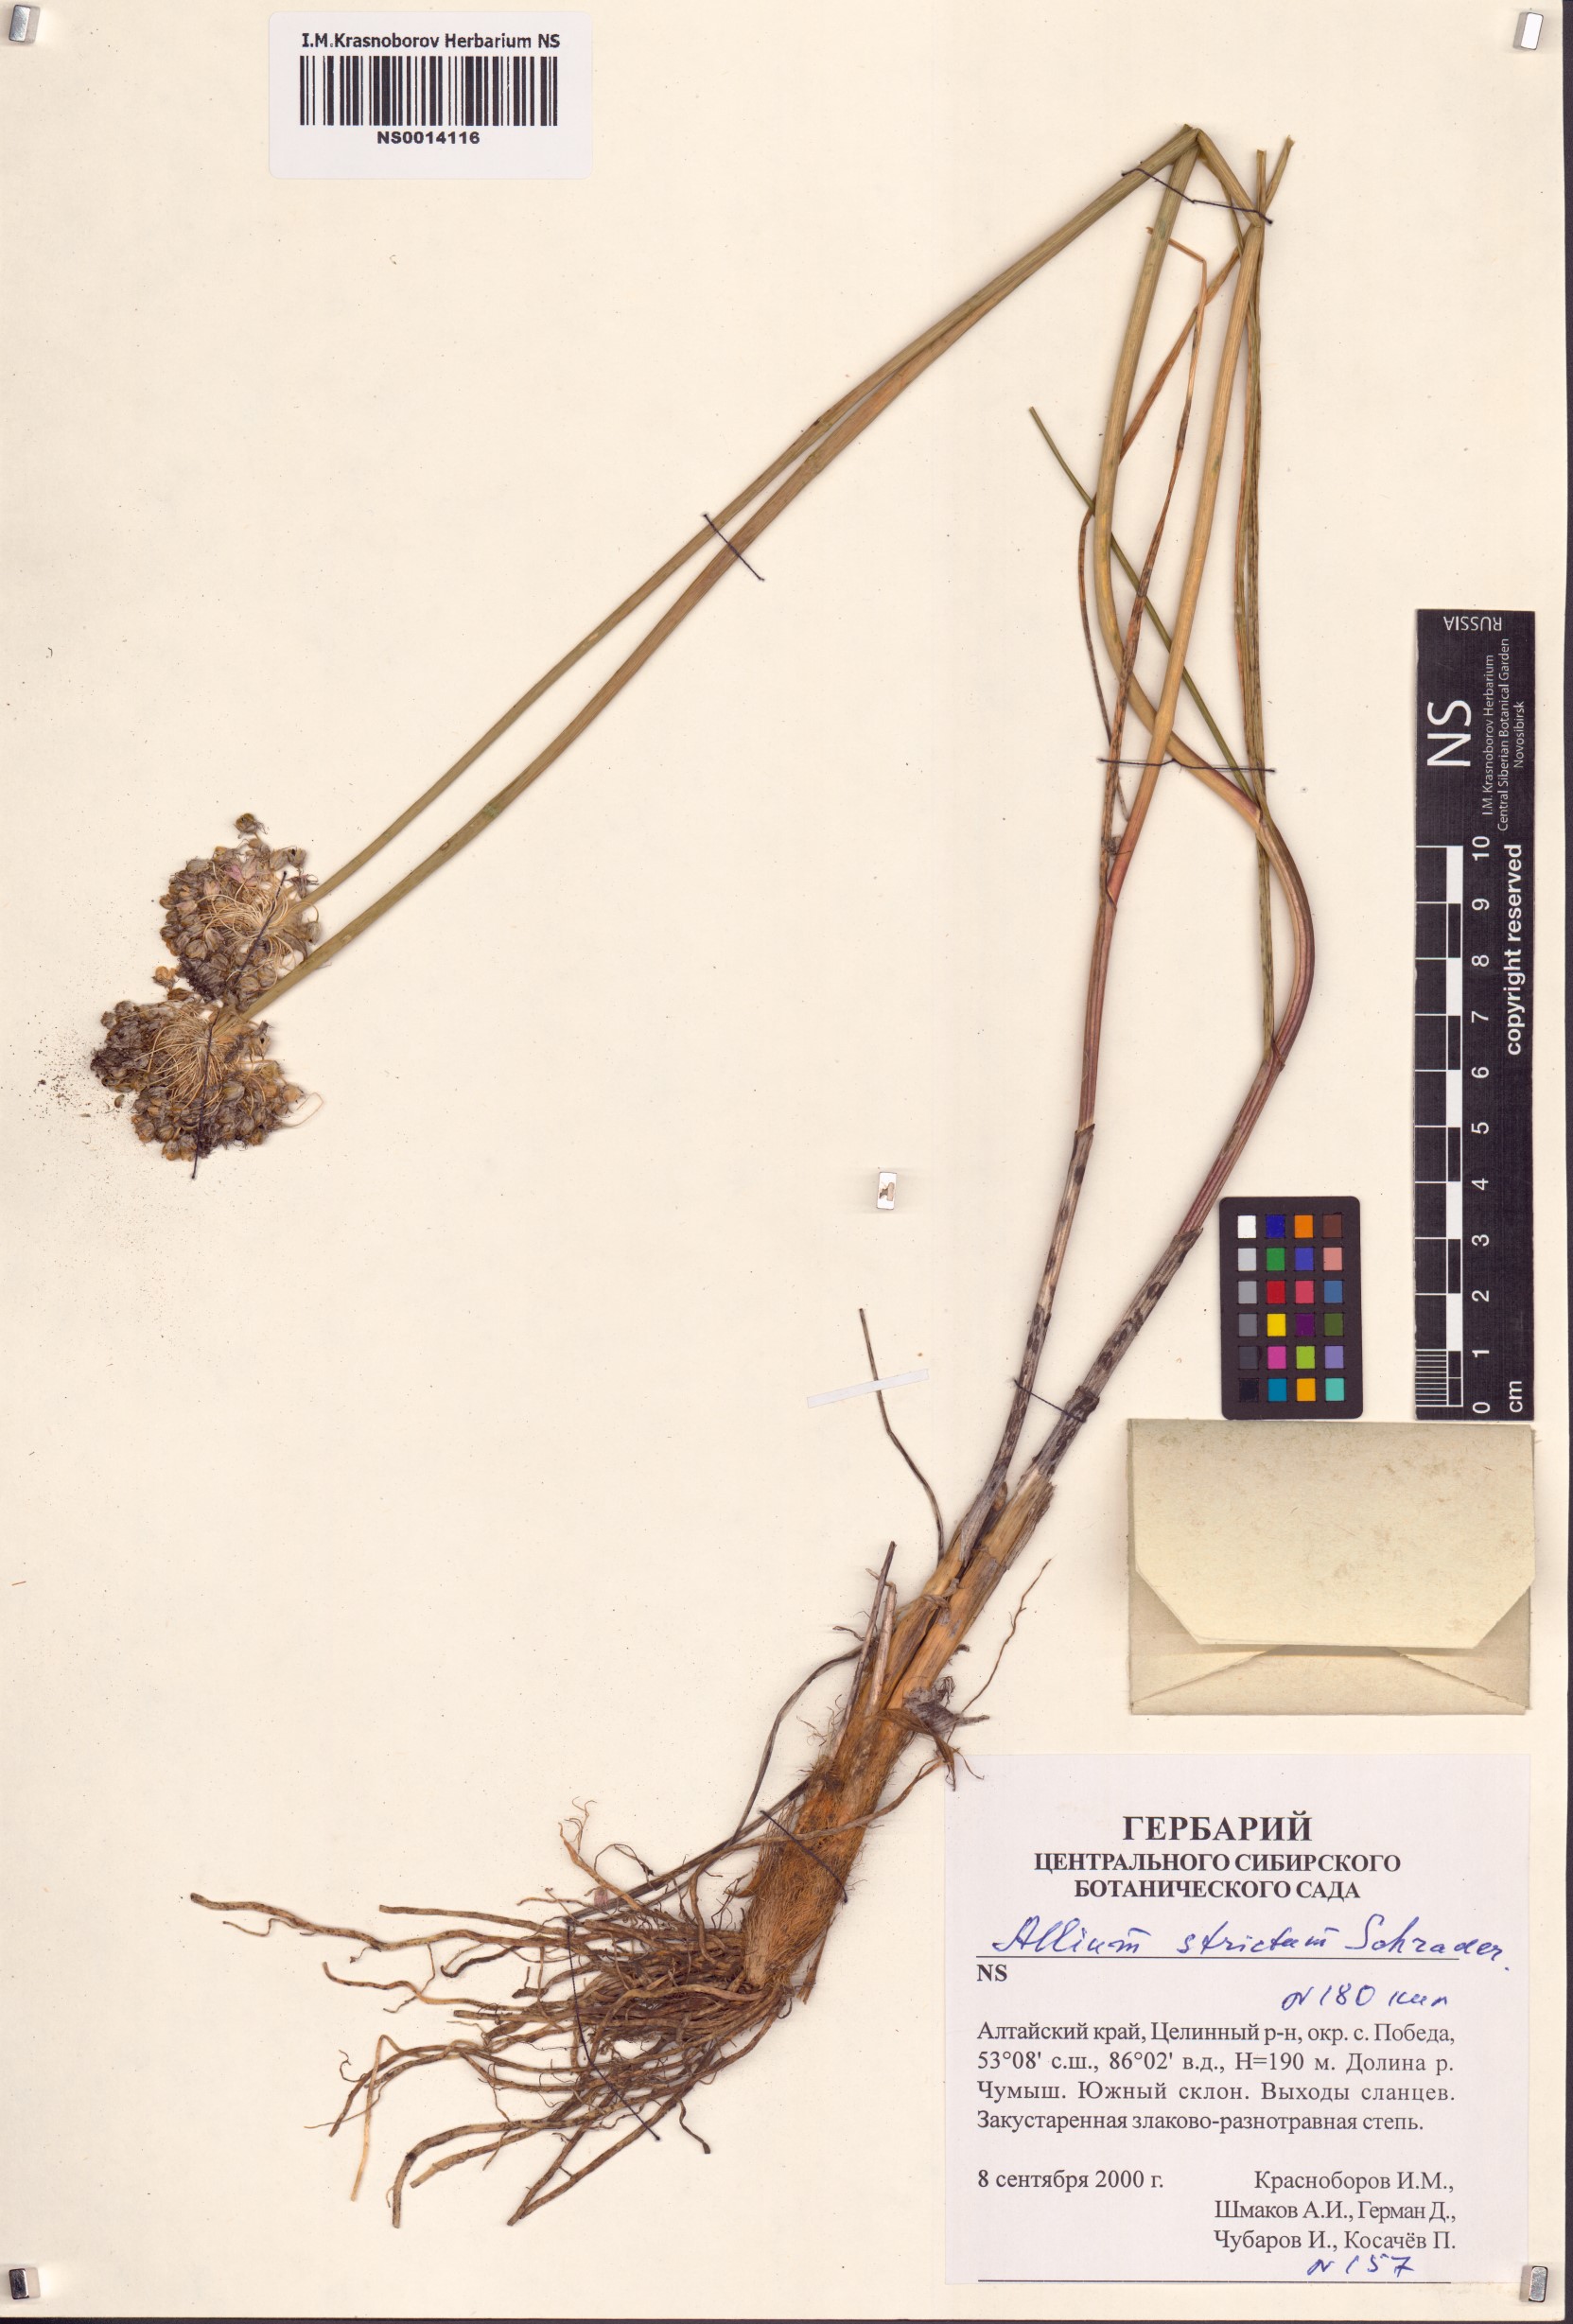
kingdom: Plantae
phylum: Tracheophyta
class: Liliopsida
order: Asparagales
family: Amaryllidaceae
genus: Allium
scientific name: Allium strictum
